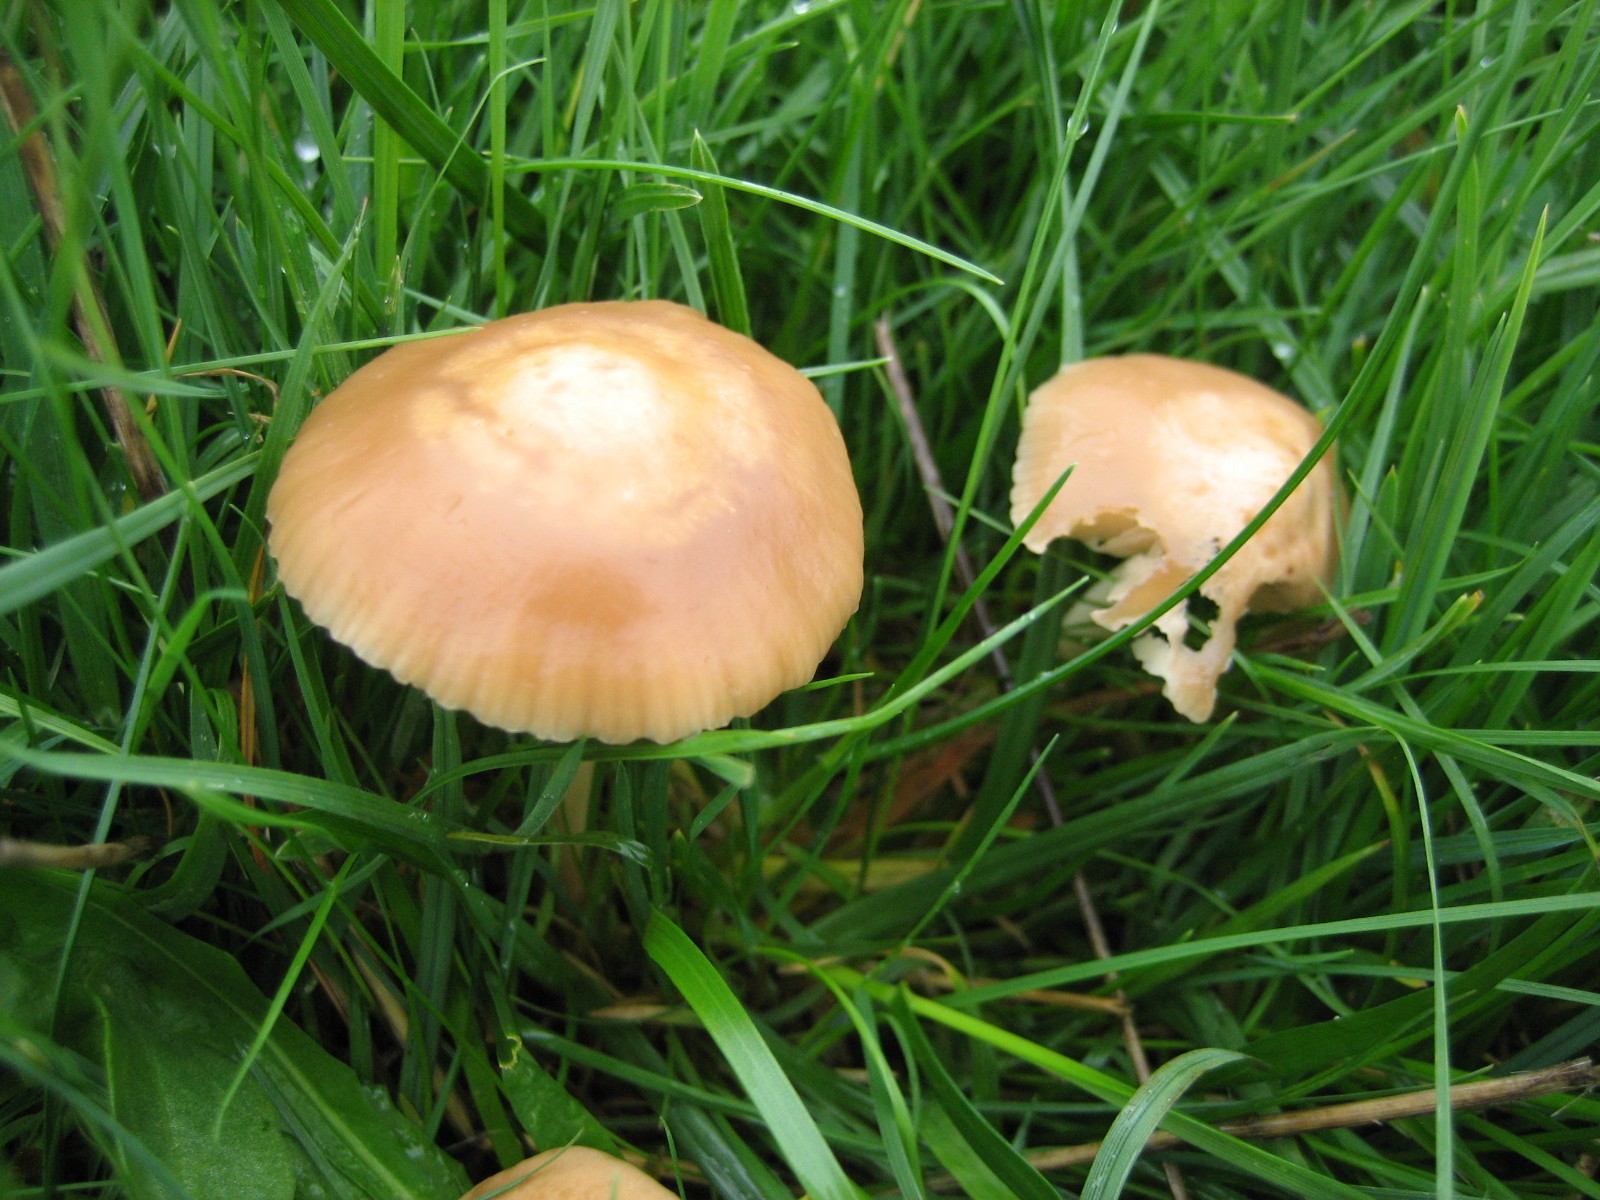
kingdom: Fungi
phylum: Basidiomycota
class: Agaricomycetes
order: Agaricales
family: Marasmiaceae
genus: Marasmius
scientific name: Marasmius oreades
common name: elledans-bruskhat
